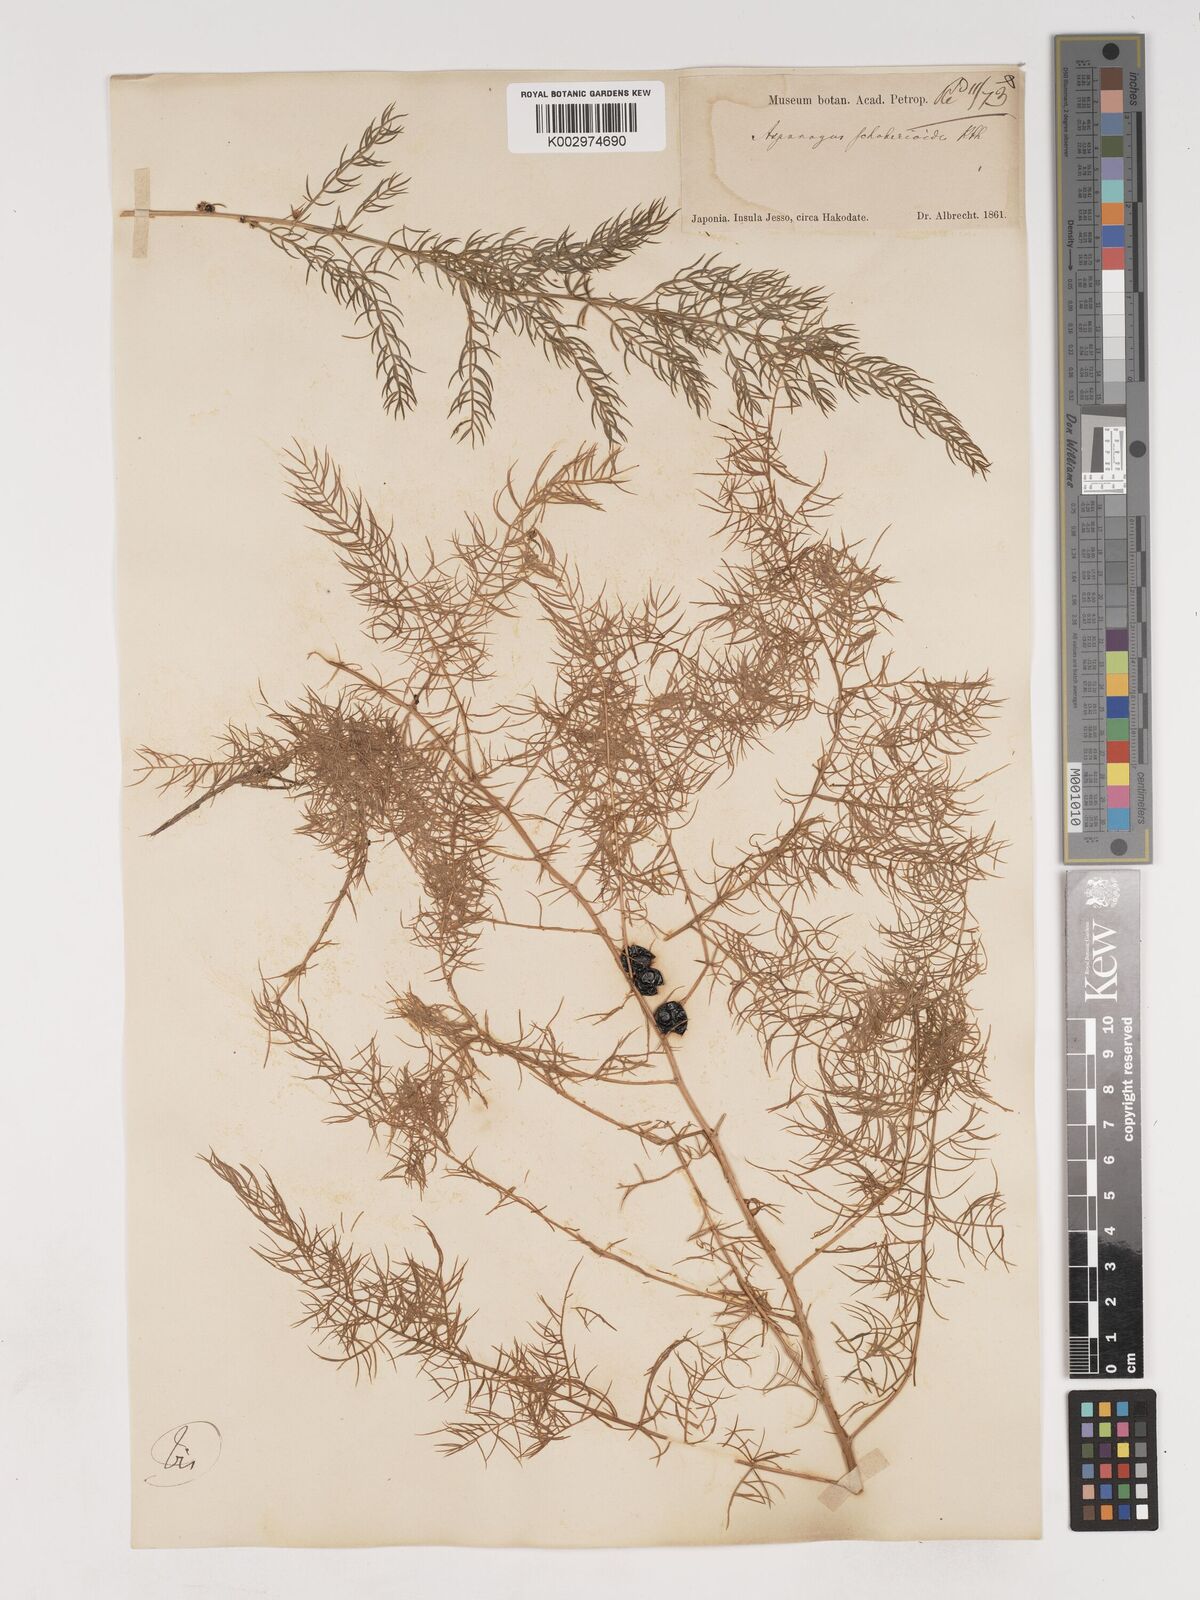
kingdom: Plantae
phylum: Tracheophyta
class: Liliopsida
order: Asparagales
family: Asparagaceae
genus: Asparagus
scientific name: Asparagus schoberioides
